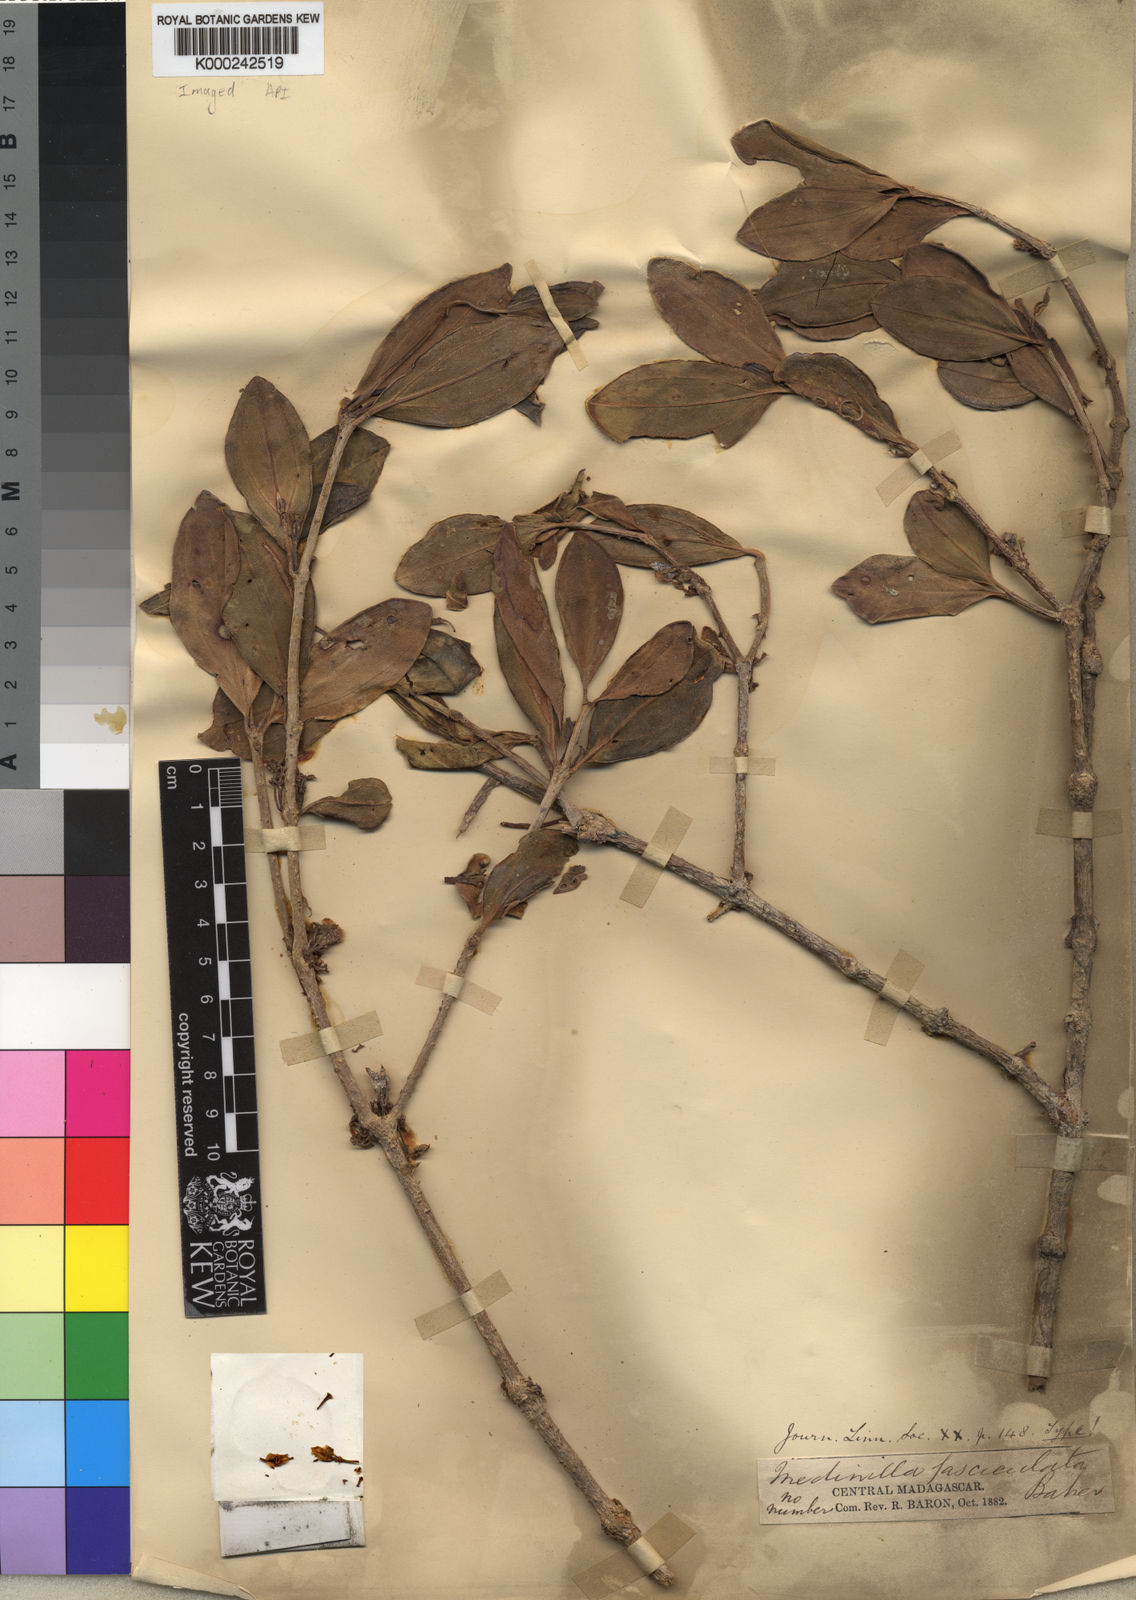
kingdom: Plantae
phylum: Tracheophyta
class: Magnoliopsida
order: Myrtales
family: Melastomataceae
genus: Medinilla
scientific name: Medinilla fasciculata
